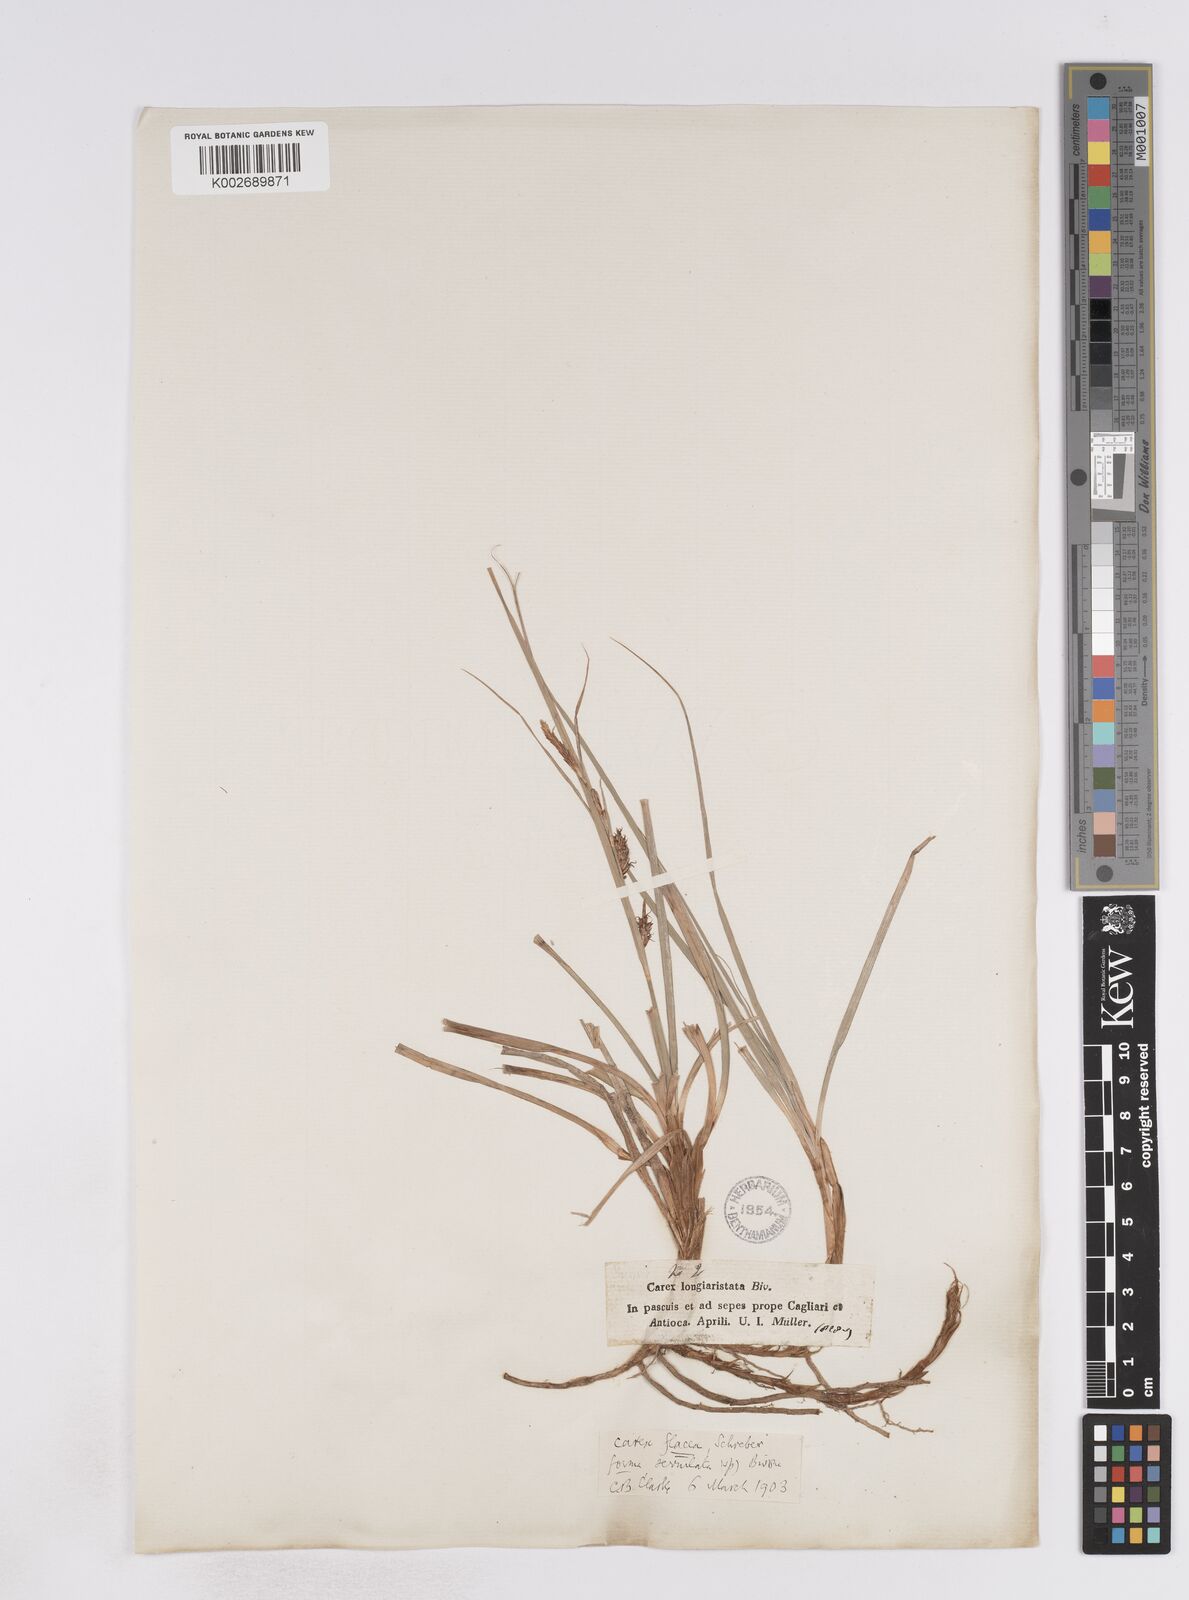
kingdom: Plantae
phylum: Tracheophyta
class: Liliopsida
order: Poales
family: Cyperaceae
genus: Carex
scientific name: Carex hispida
